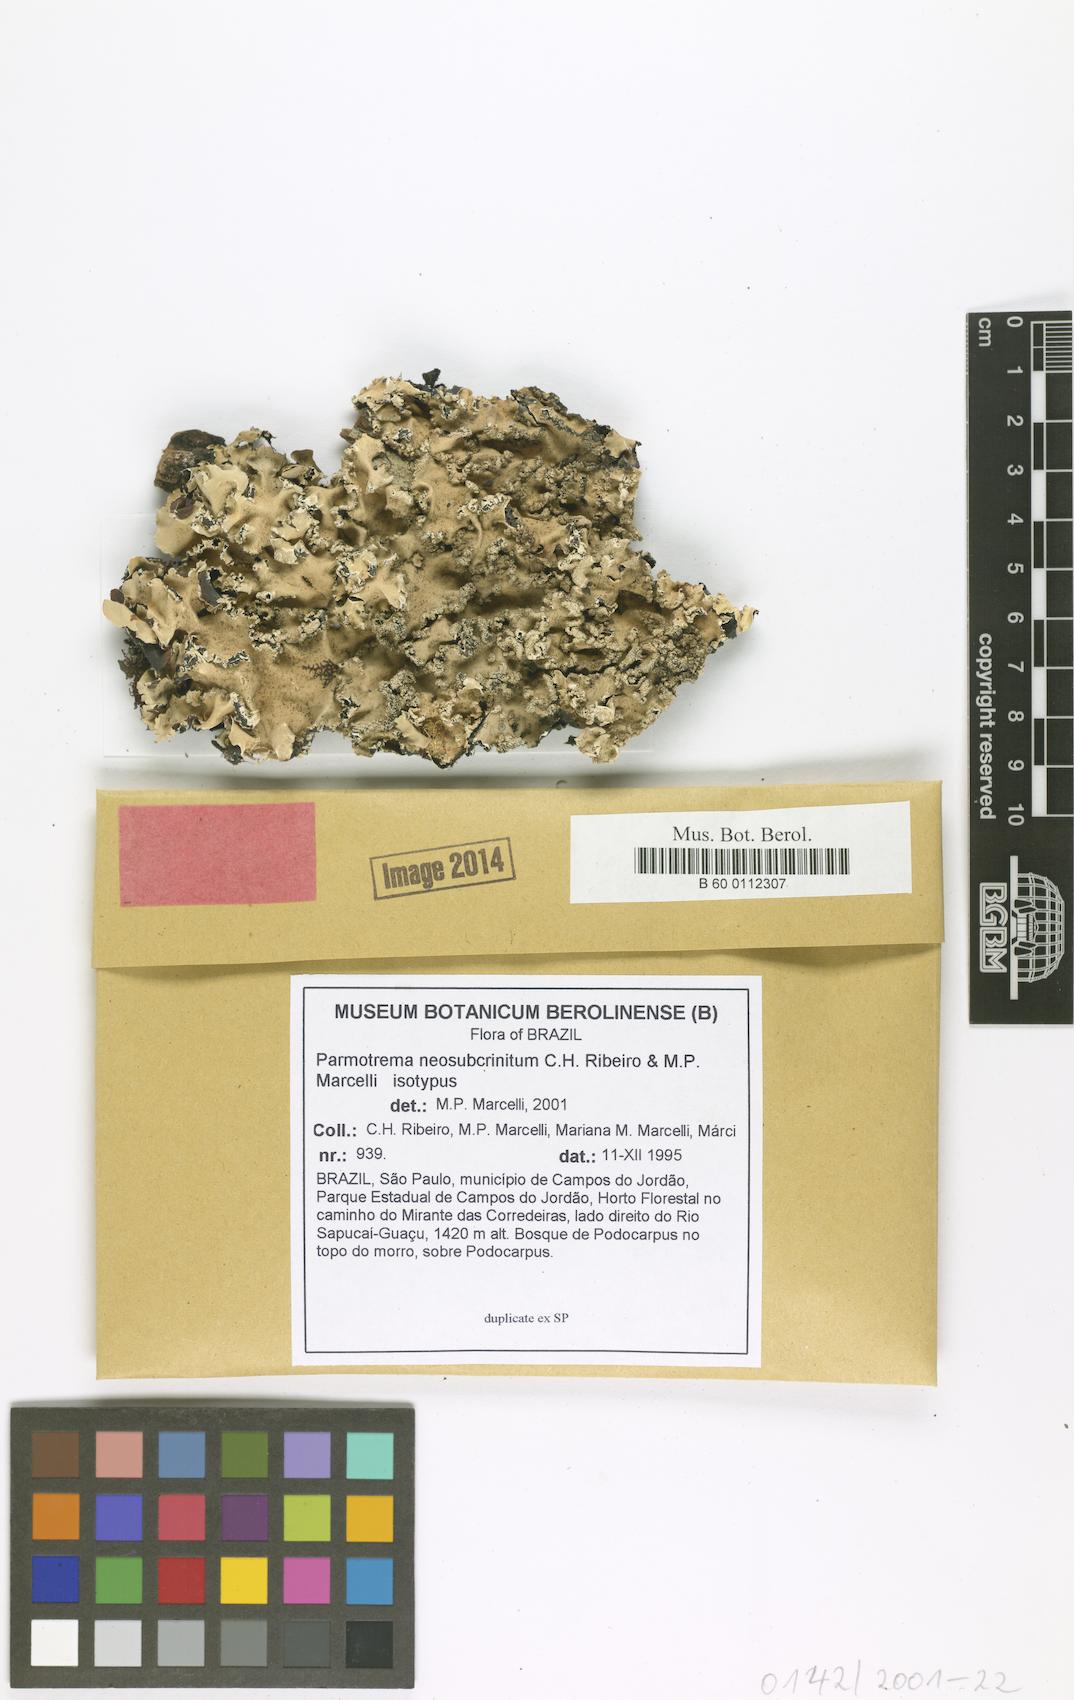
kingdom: Fungi
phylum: Ascomycota
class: Lecanoromycetes
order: Lecanorales
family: Parmeliaceae
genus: Parmotrema
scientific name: Parmotrema neosubcrinitum
